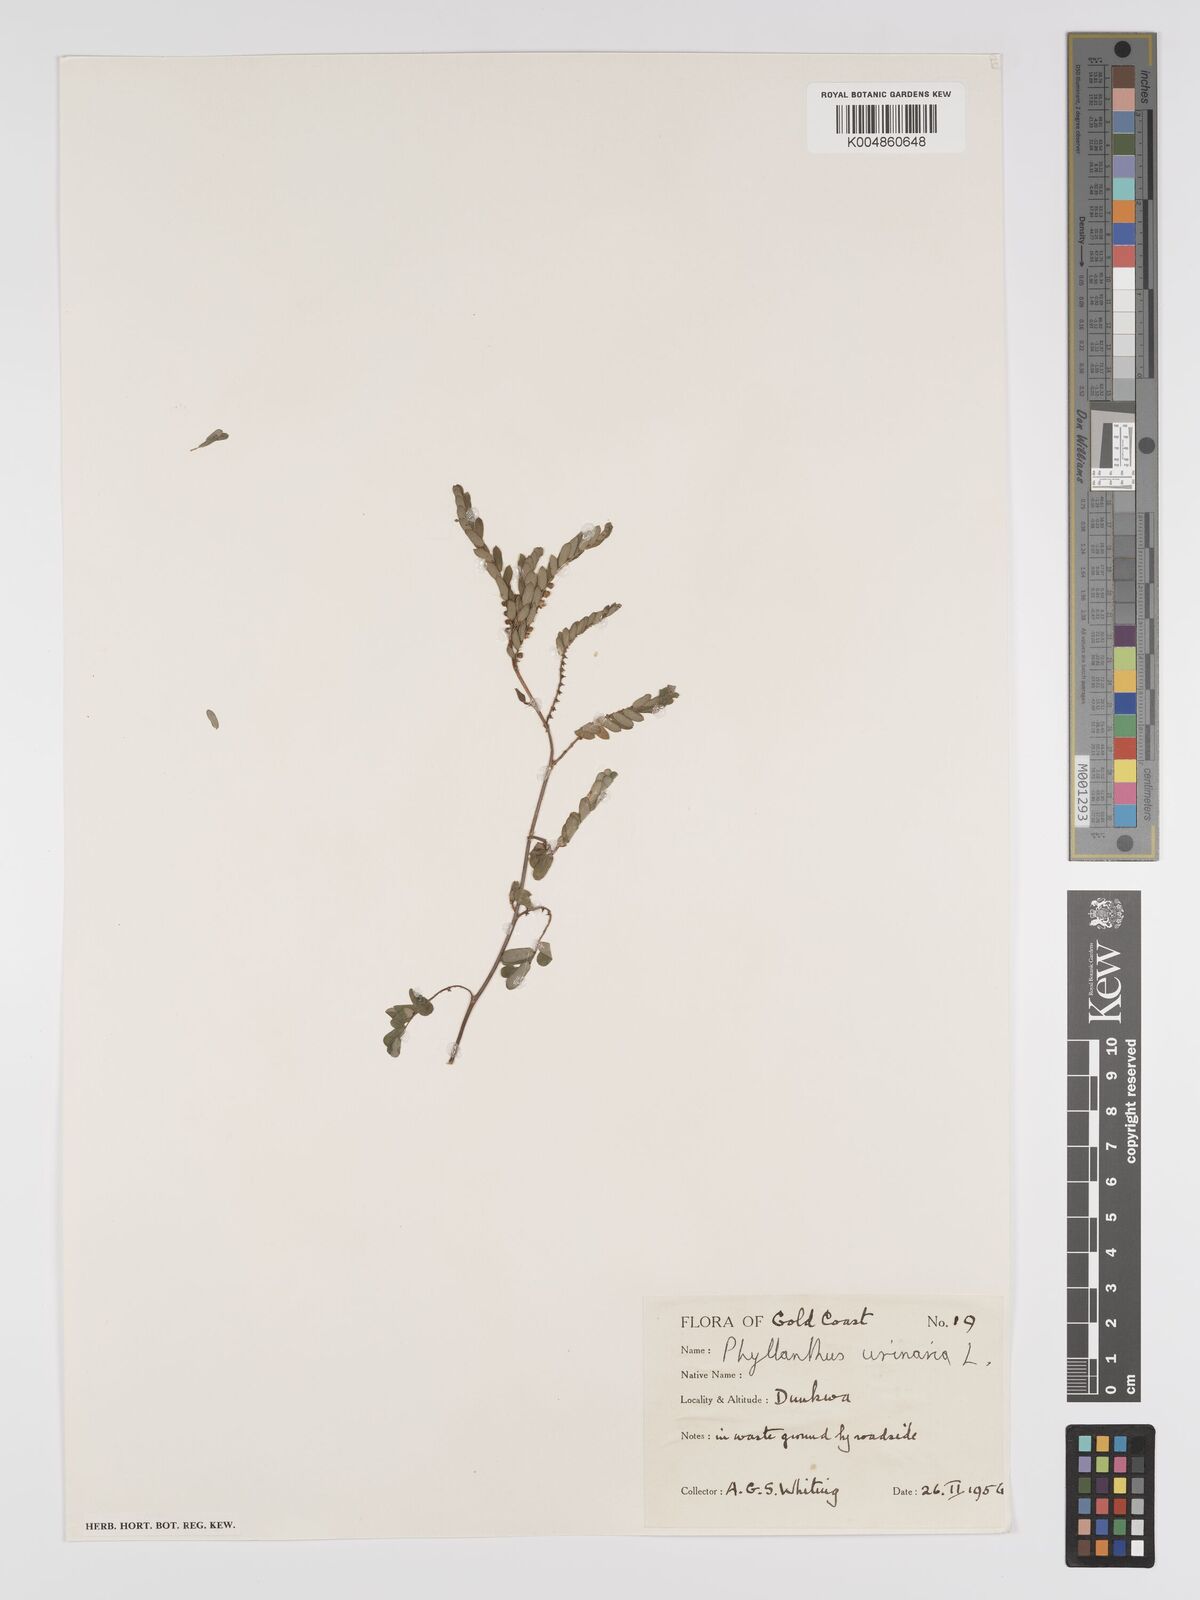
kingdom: Plantae
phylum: Tracheophyta
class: Magnoliopsida
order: Malpighiales
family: Phyllanthaceae
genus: Phyllanthus
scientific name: Phyllanthus urinaria
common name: Chamber bitter
